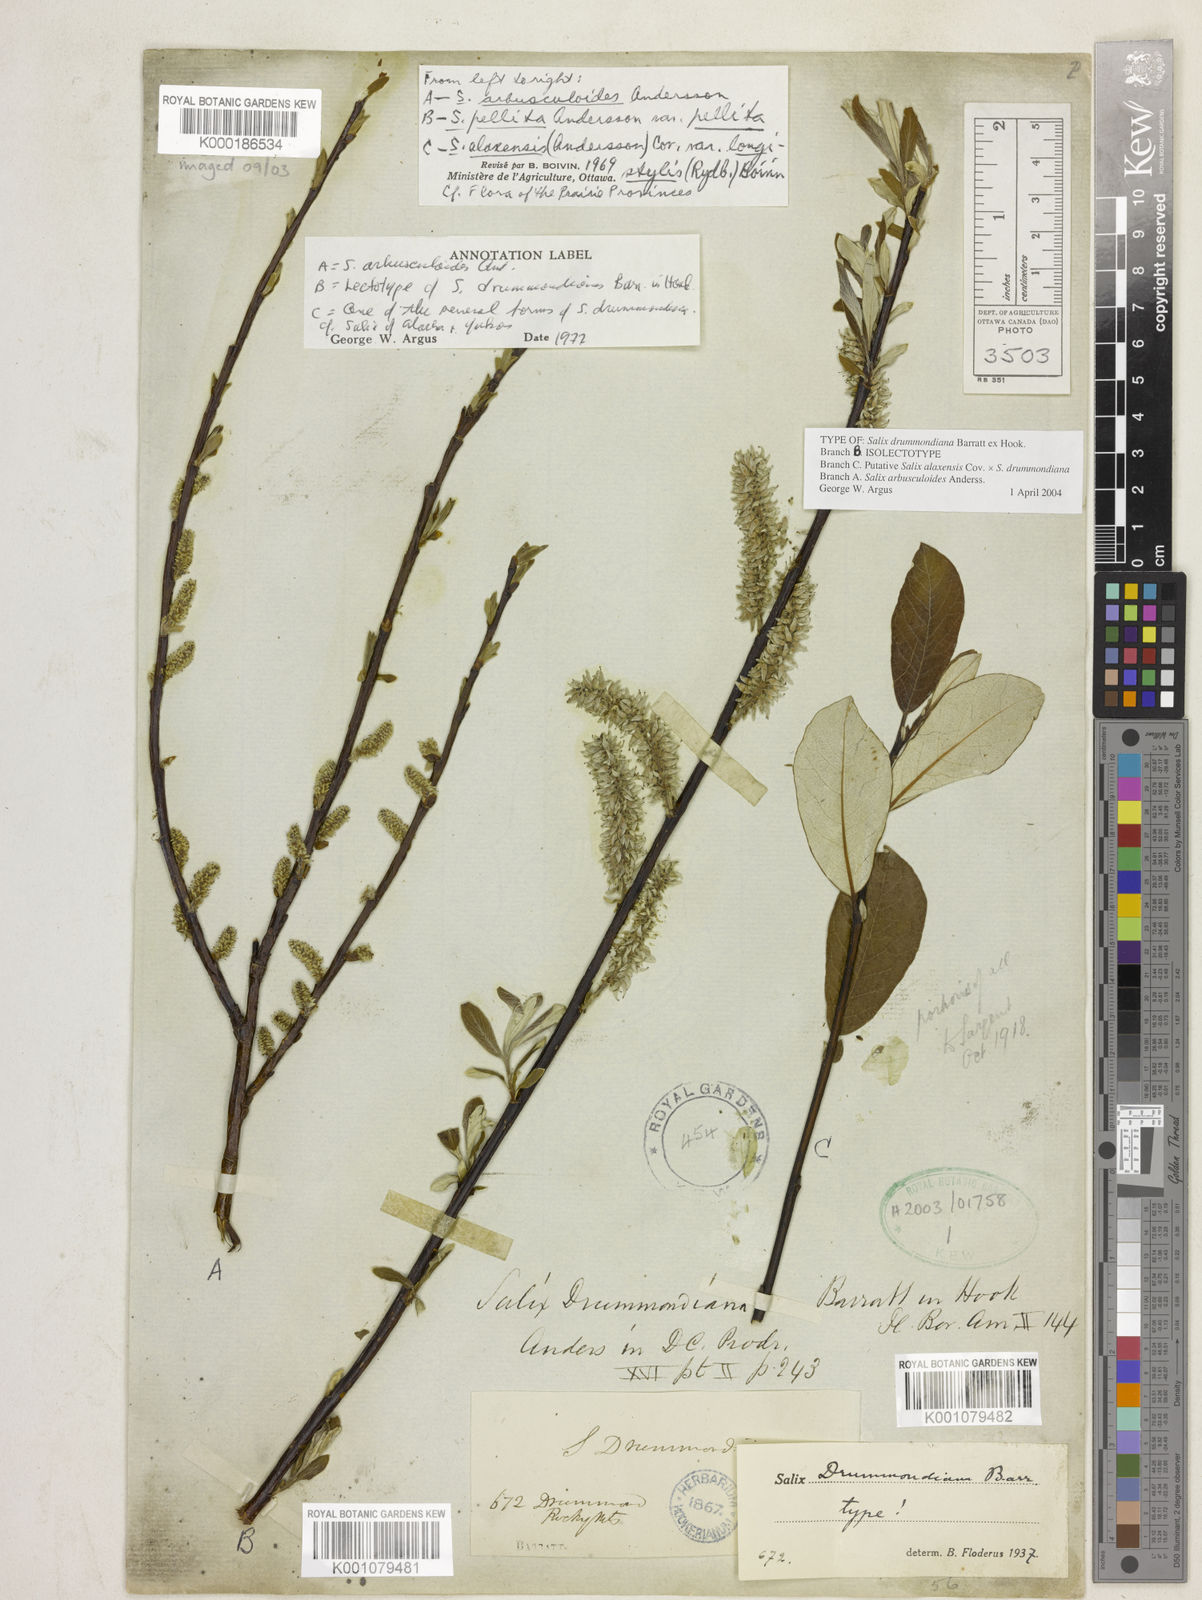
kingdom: Plantae
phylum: Tracheophyta
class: Magnoliopsida
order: Malpighiales
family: Salicaceae
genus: Salix
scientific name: Salix
